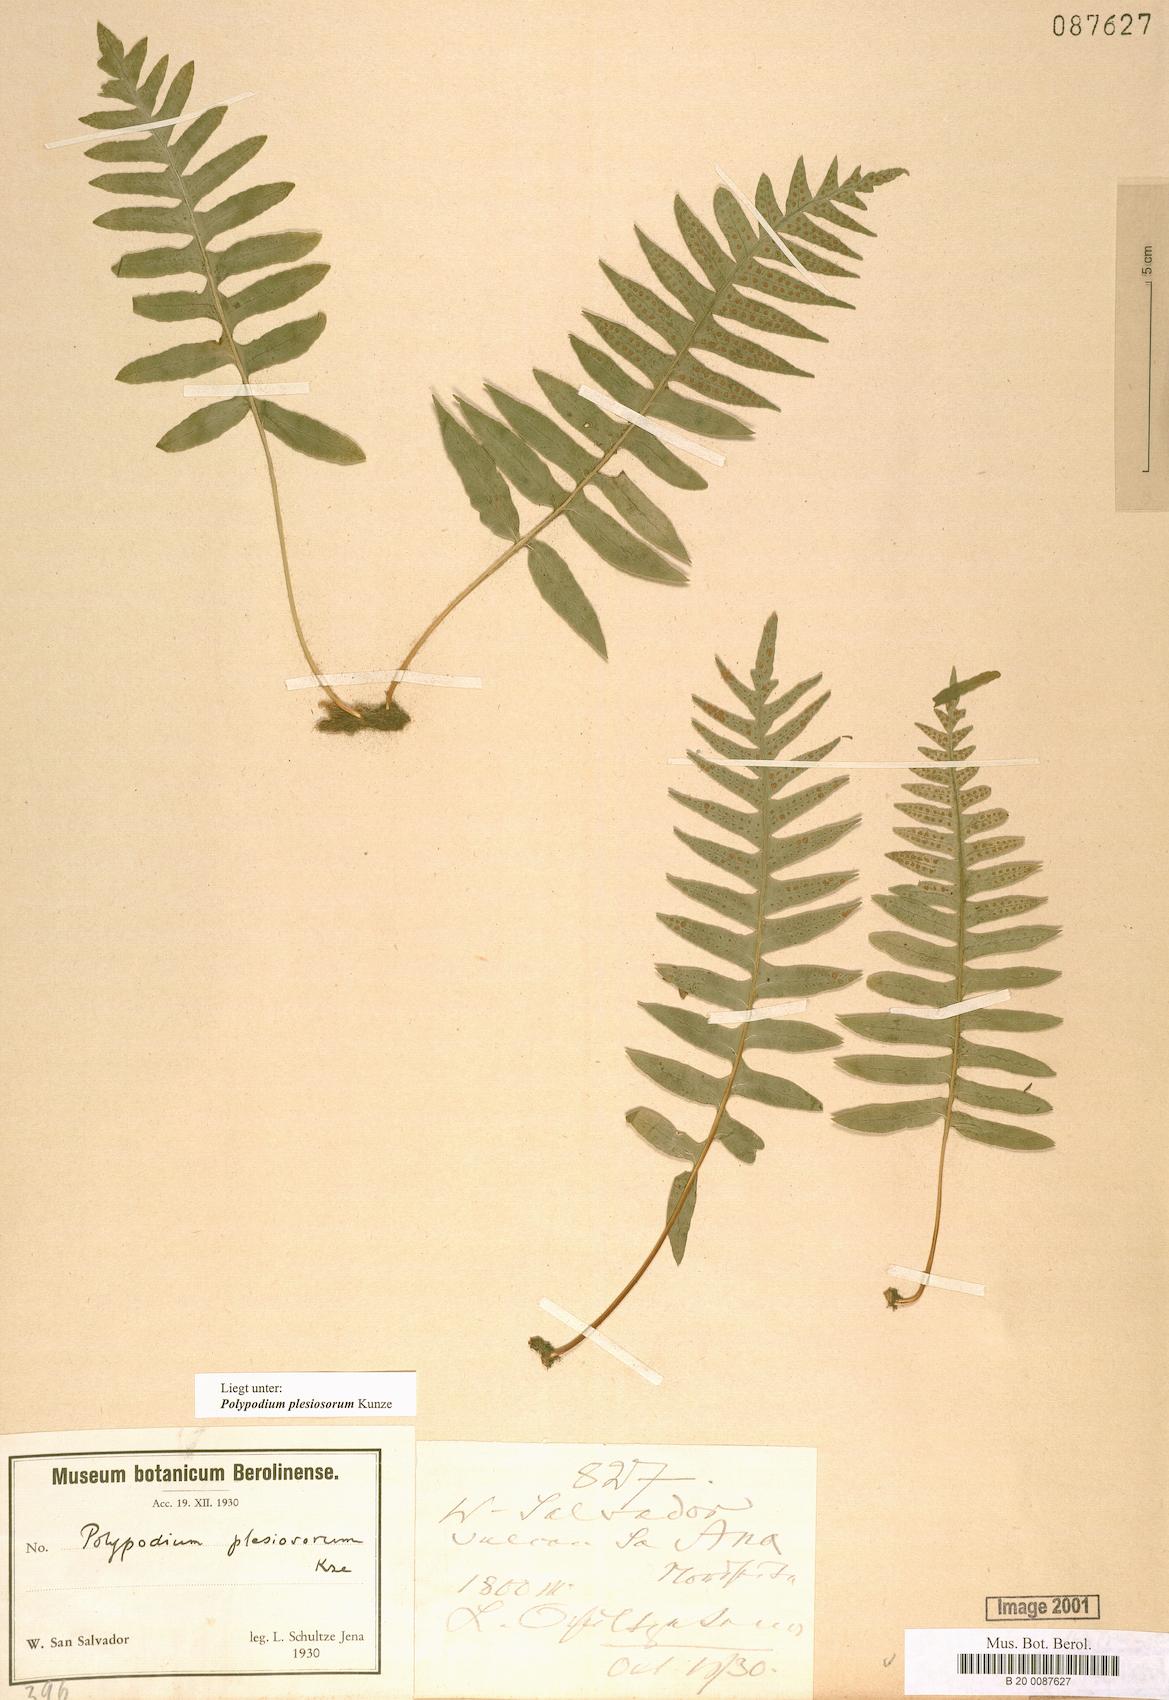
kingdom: Plantae
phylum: Tracheophyta
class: Polypodiopsida
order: Polypodiales
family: Polypodiaceae
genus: Polypodium
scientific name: Polypodium plesiosorum
